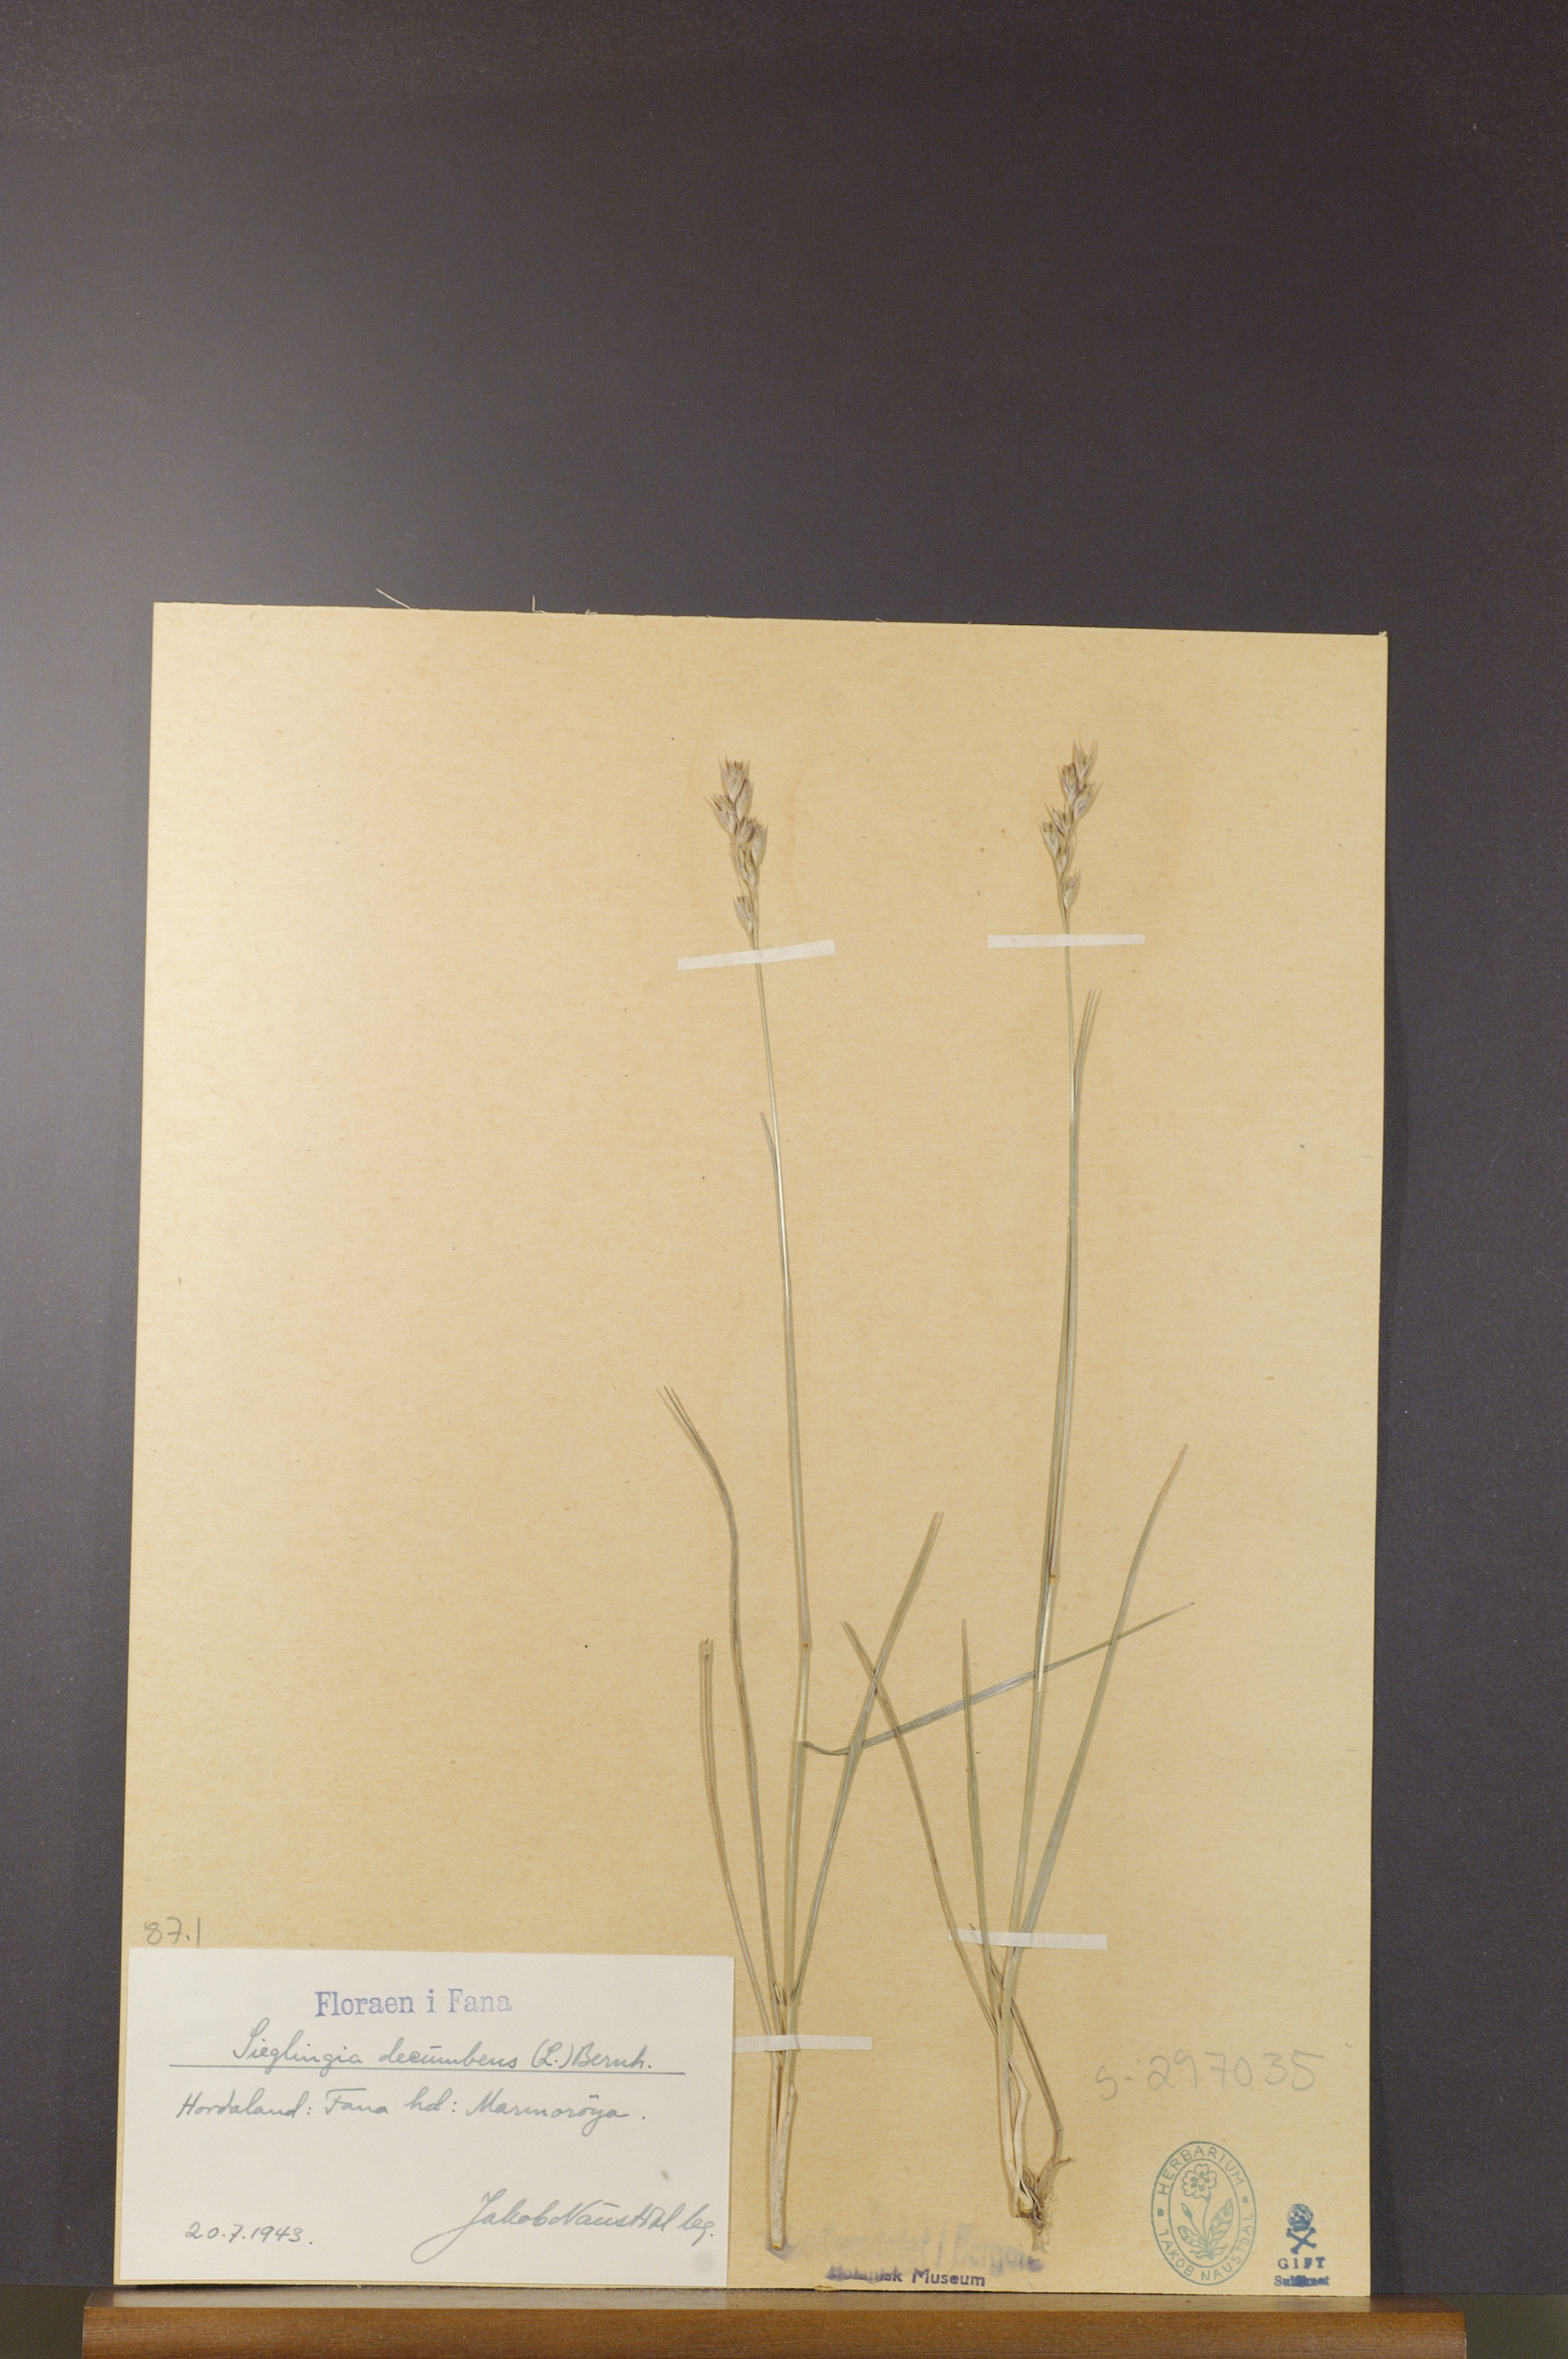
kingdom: Plantae
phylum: Tracheophyta
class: Liliopsida
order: Poales
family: Poaceae
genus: Danthonia
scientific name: Danthonia decumbens
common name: Common heathgrass
